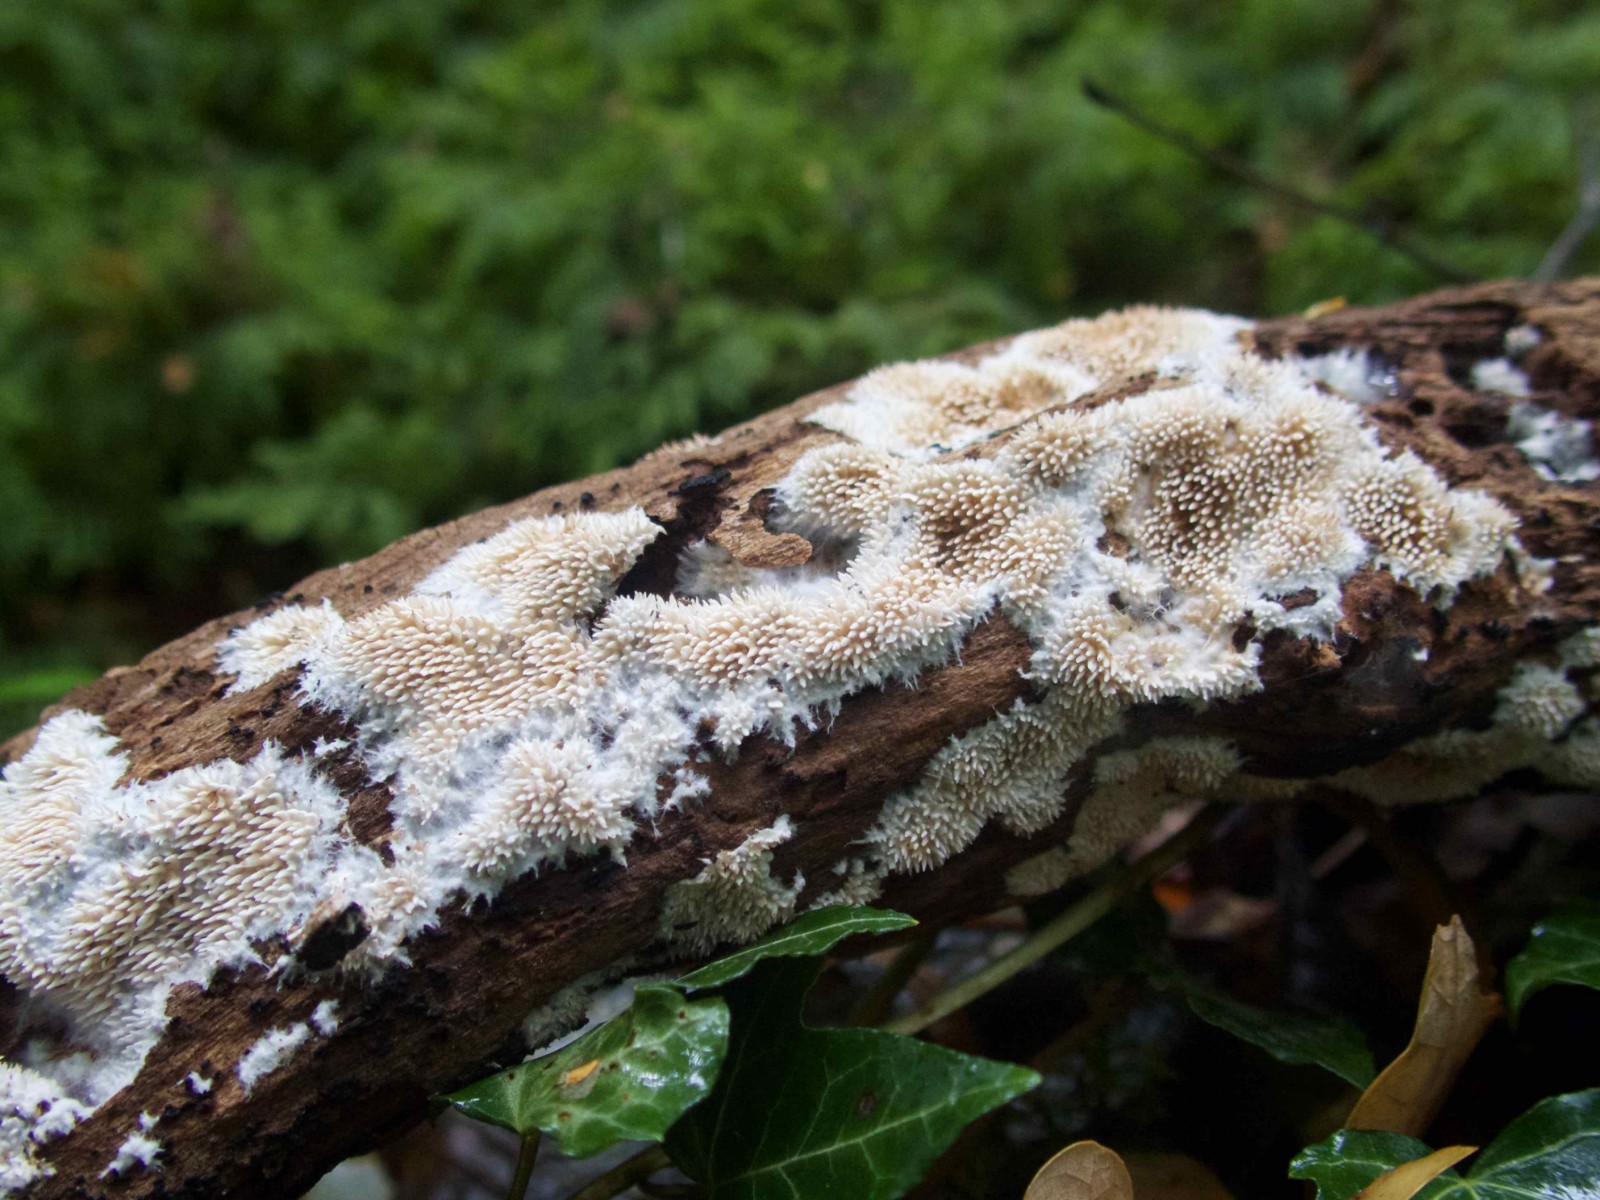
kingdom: Fungi
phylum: Basidiomycota
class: Agaricomycetes
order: Gomphales
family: Lentariaceae
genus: Hydnocristella
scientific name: Hydnocristella himantia
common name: brunlig koralpig
